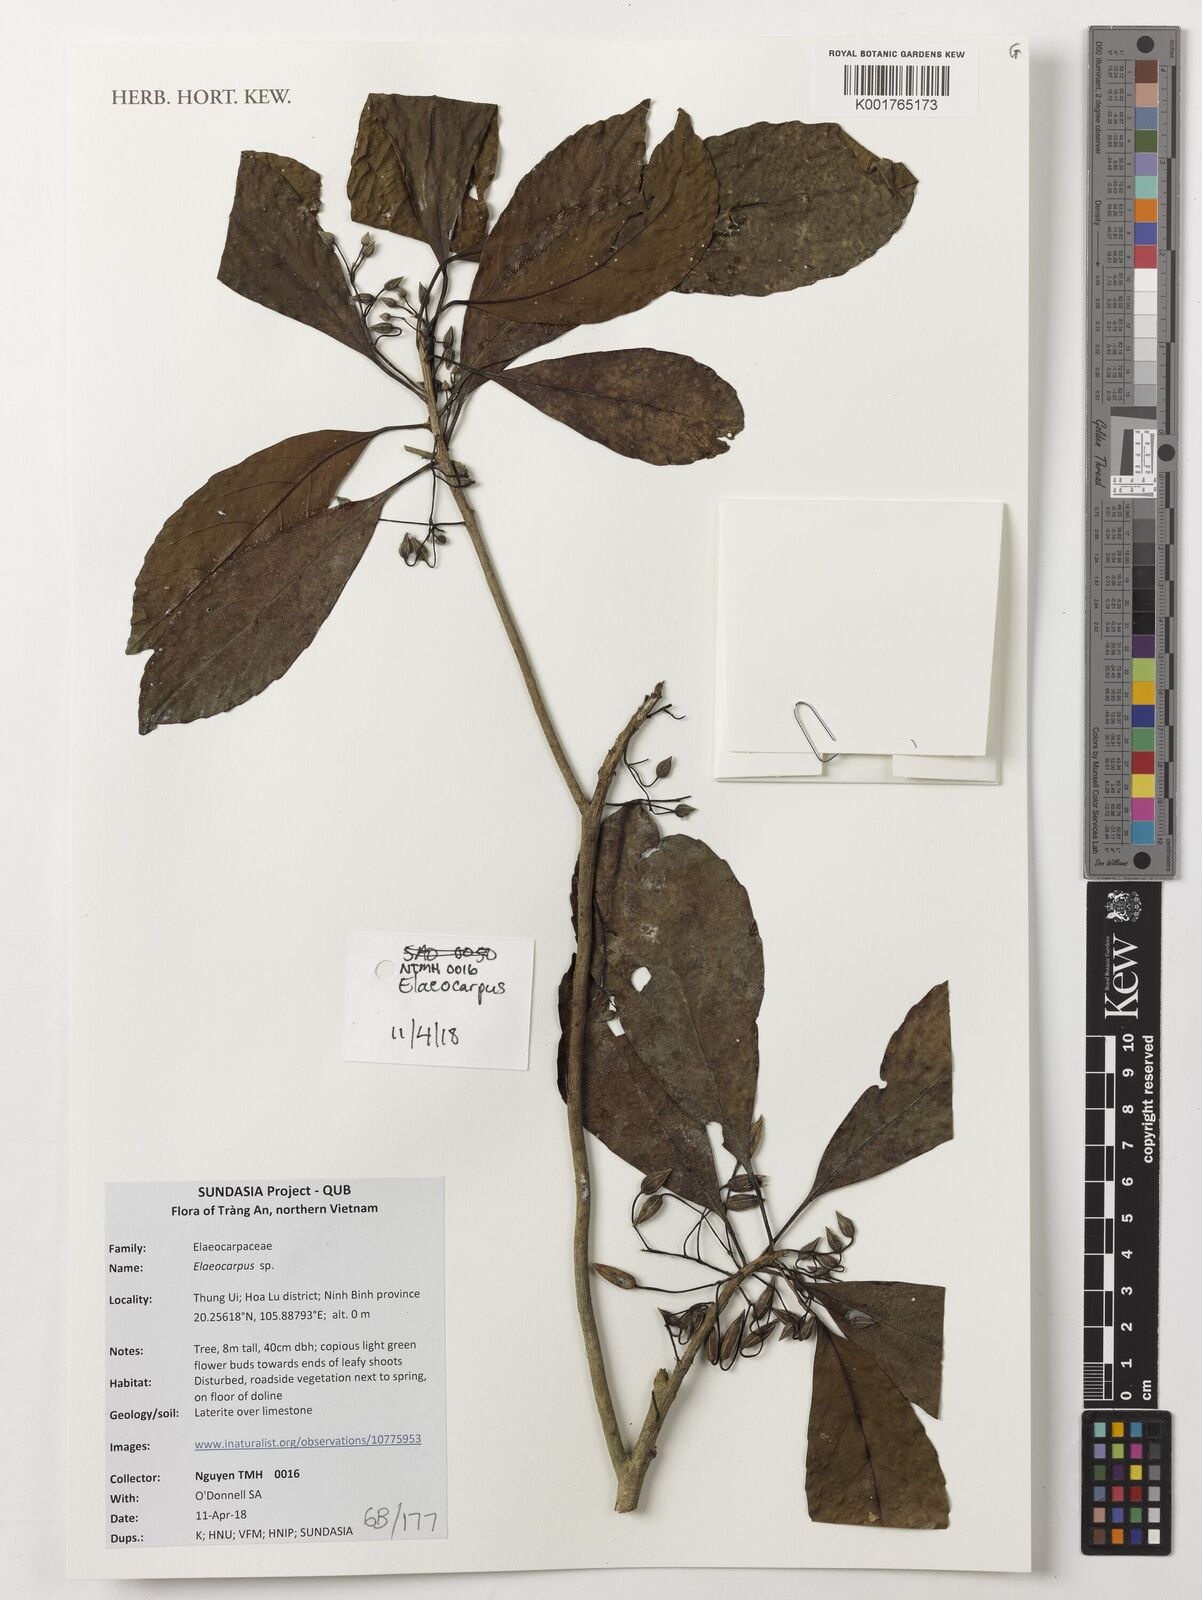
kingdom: Plantae
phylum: Tracheophyta
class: Magnoliopsida
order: Oxalidales
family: Elaeocarpaceae
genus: Elaeocarpus
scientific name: Elaeocarpus
